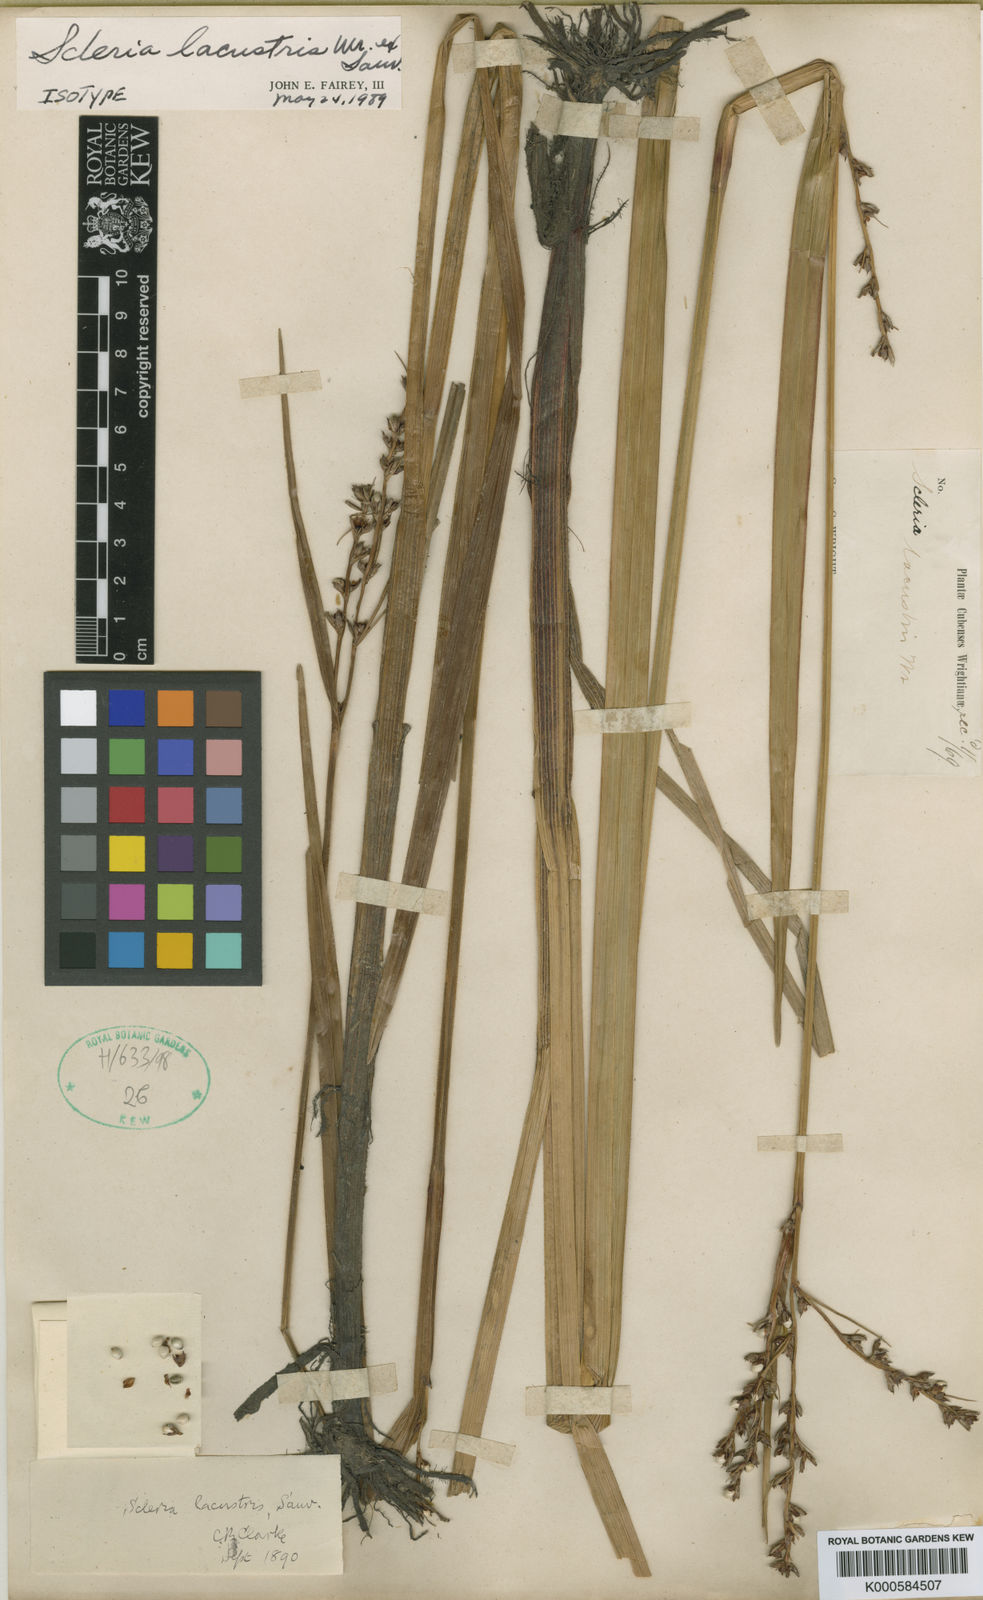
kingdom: Plantae
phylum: Tracheophyta
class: Liliopsida
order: Poales
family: Cyperaceae
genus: Scleria
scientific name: Scleria
